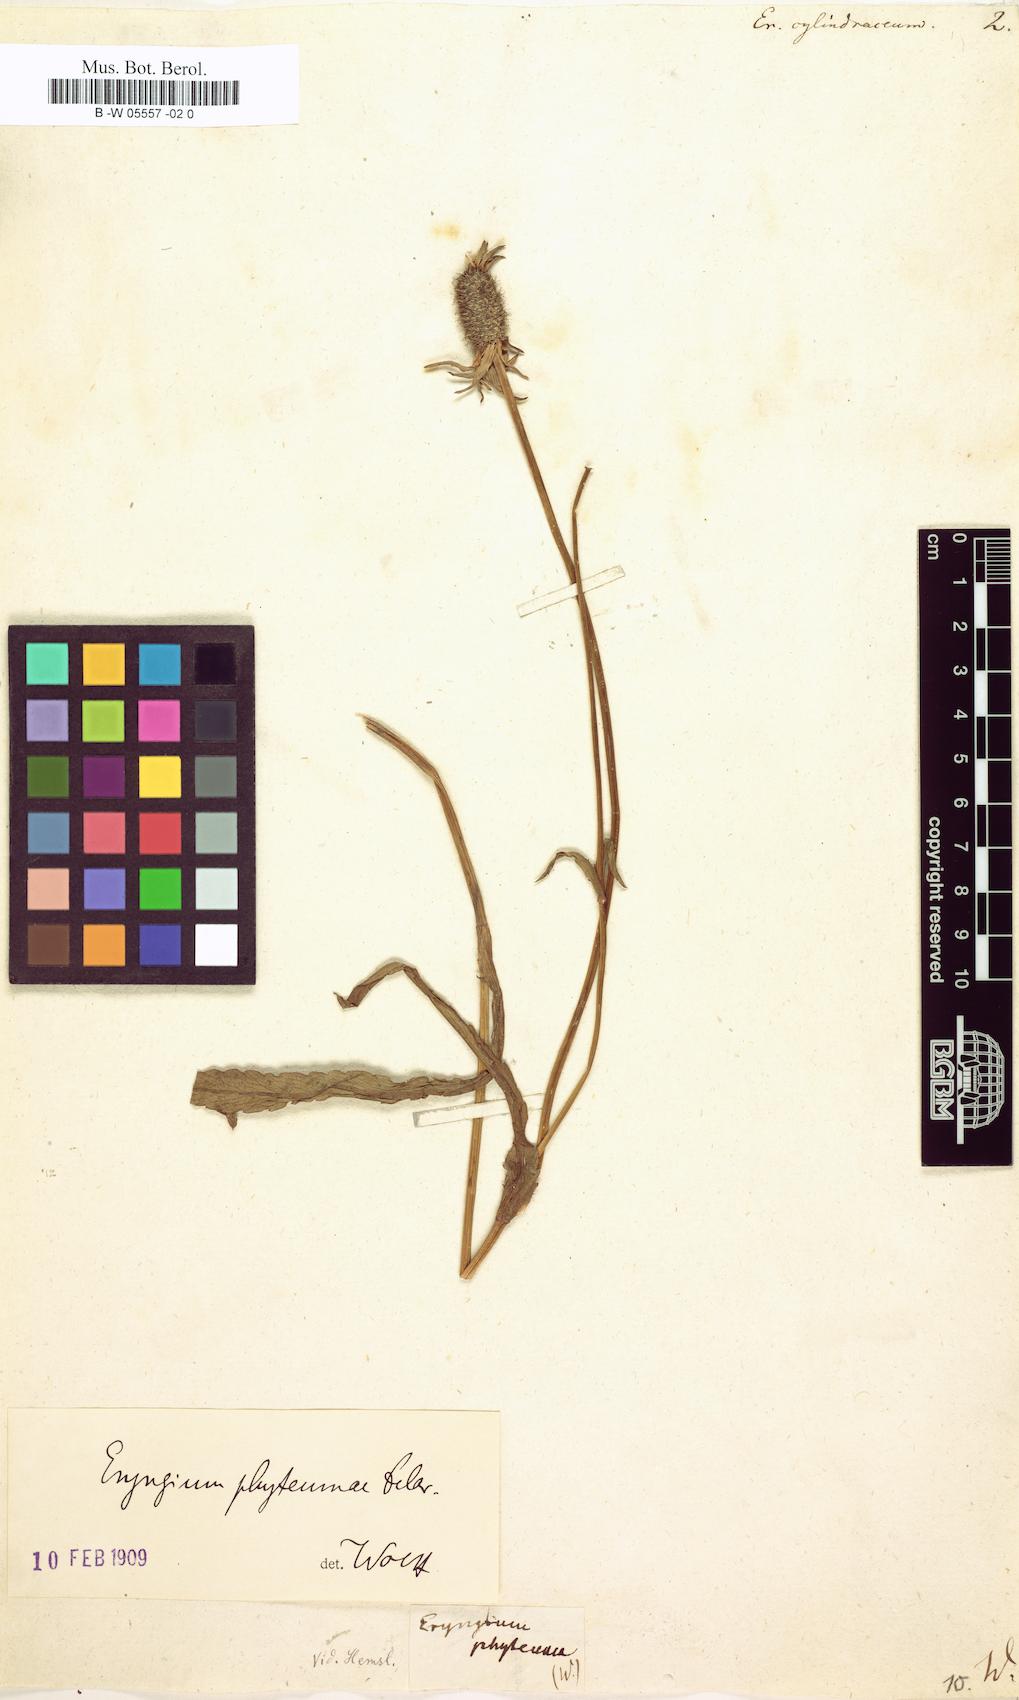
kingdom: Plantae
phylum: Tracheophyta
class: Magnoliopsida
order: Apiales
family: Apiaceae
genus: Eryngium
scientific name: Eryngium phyteumae
